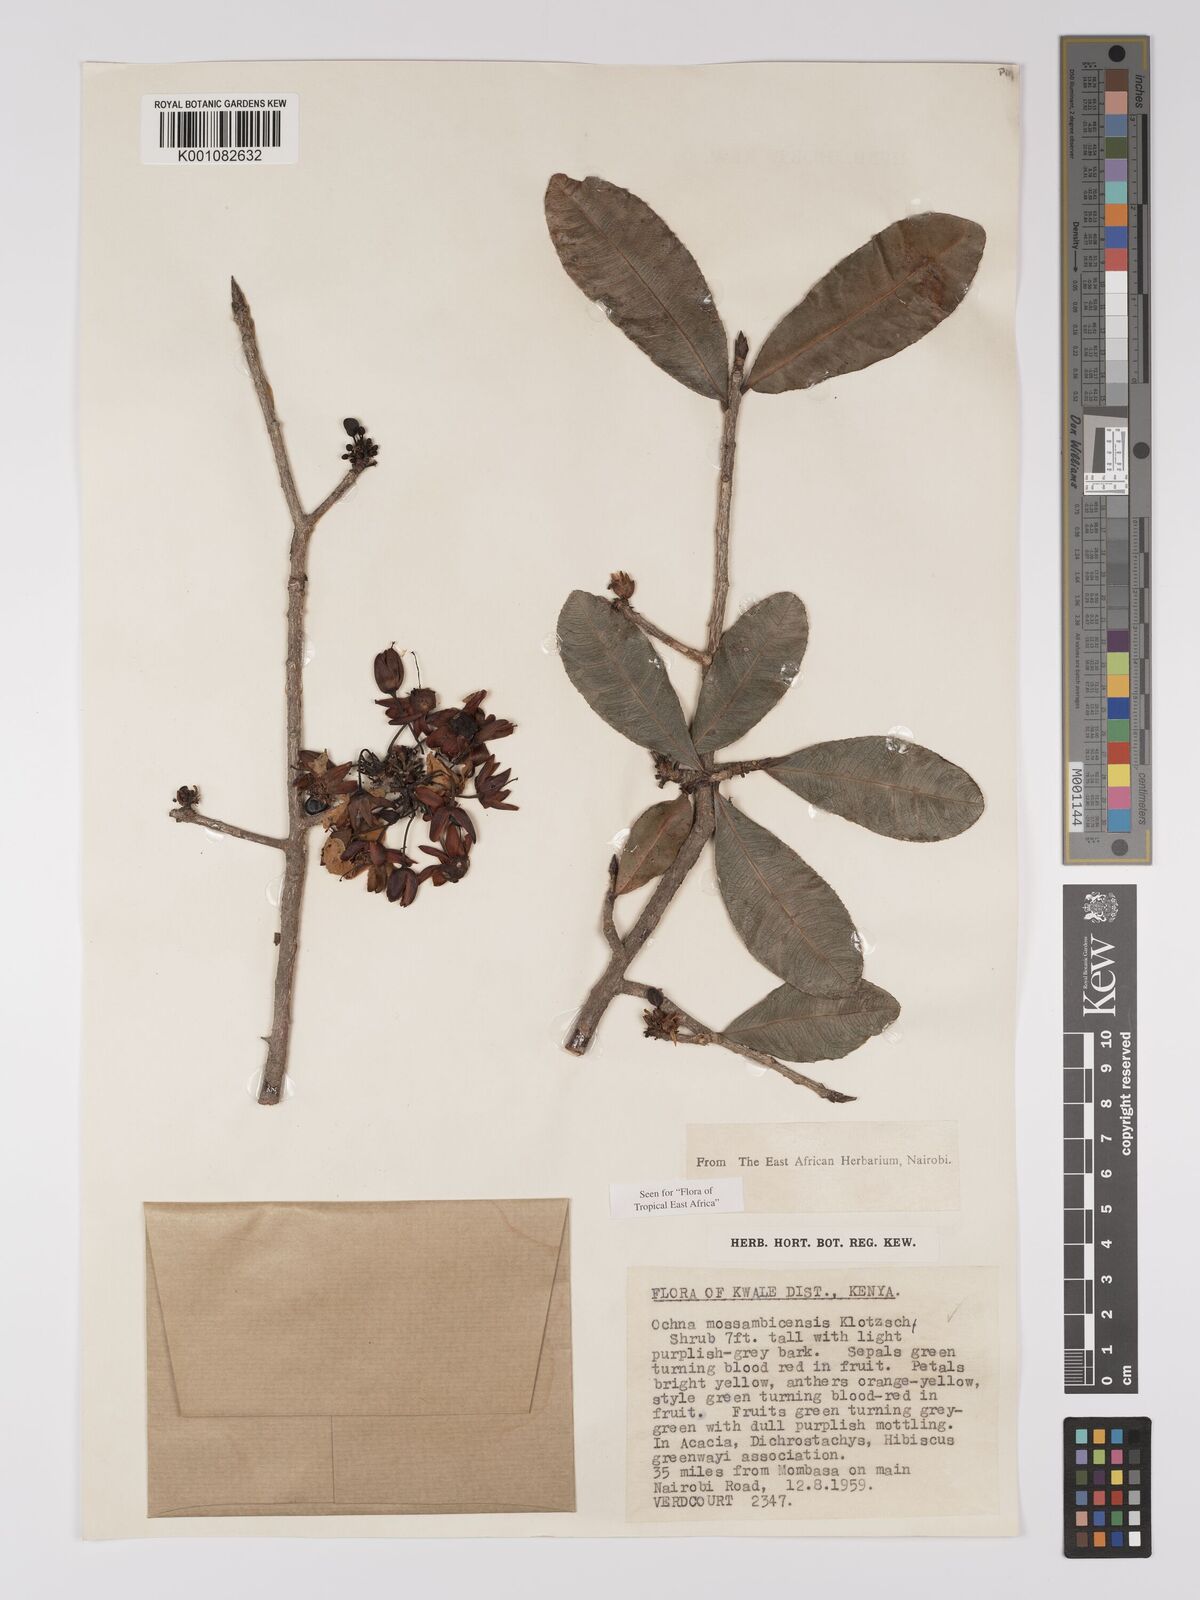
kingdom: Plantae
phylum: Tracheophyta
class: Magnoliopsida
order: Malpighiales
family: Ochnaceae
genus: Ochna
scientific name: Ochna atropurpurea
